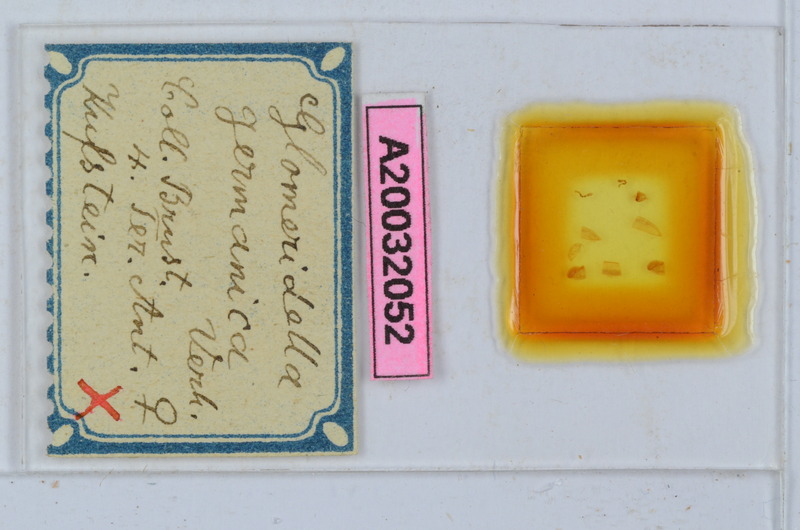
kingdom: Animalia
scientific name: Animalia
